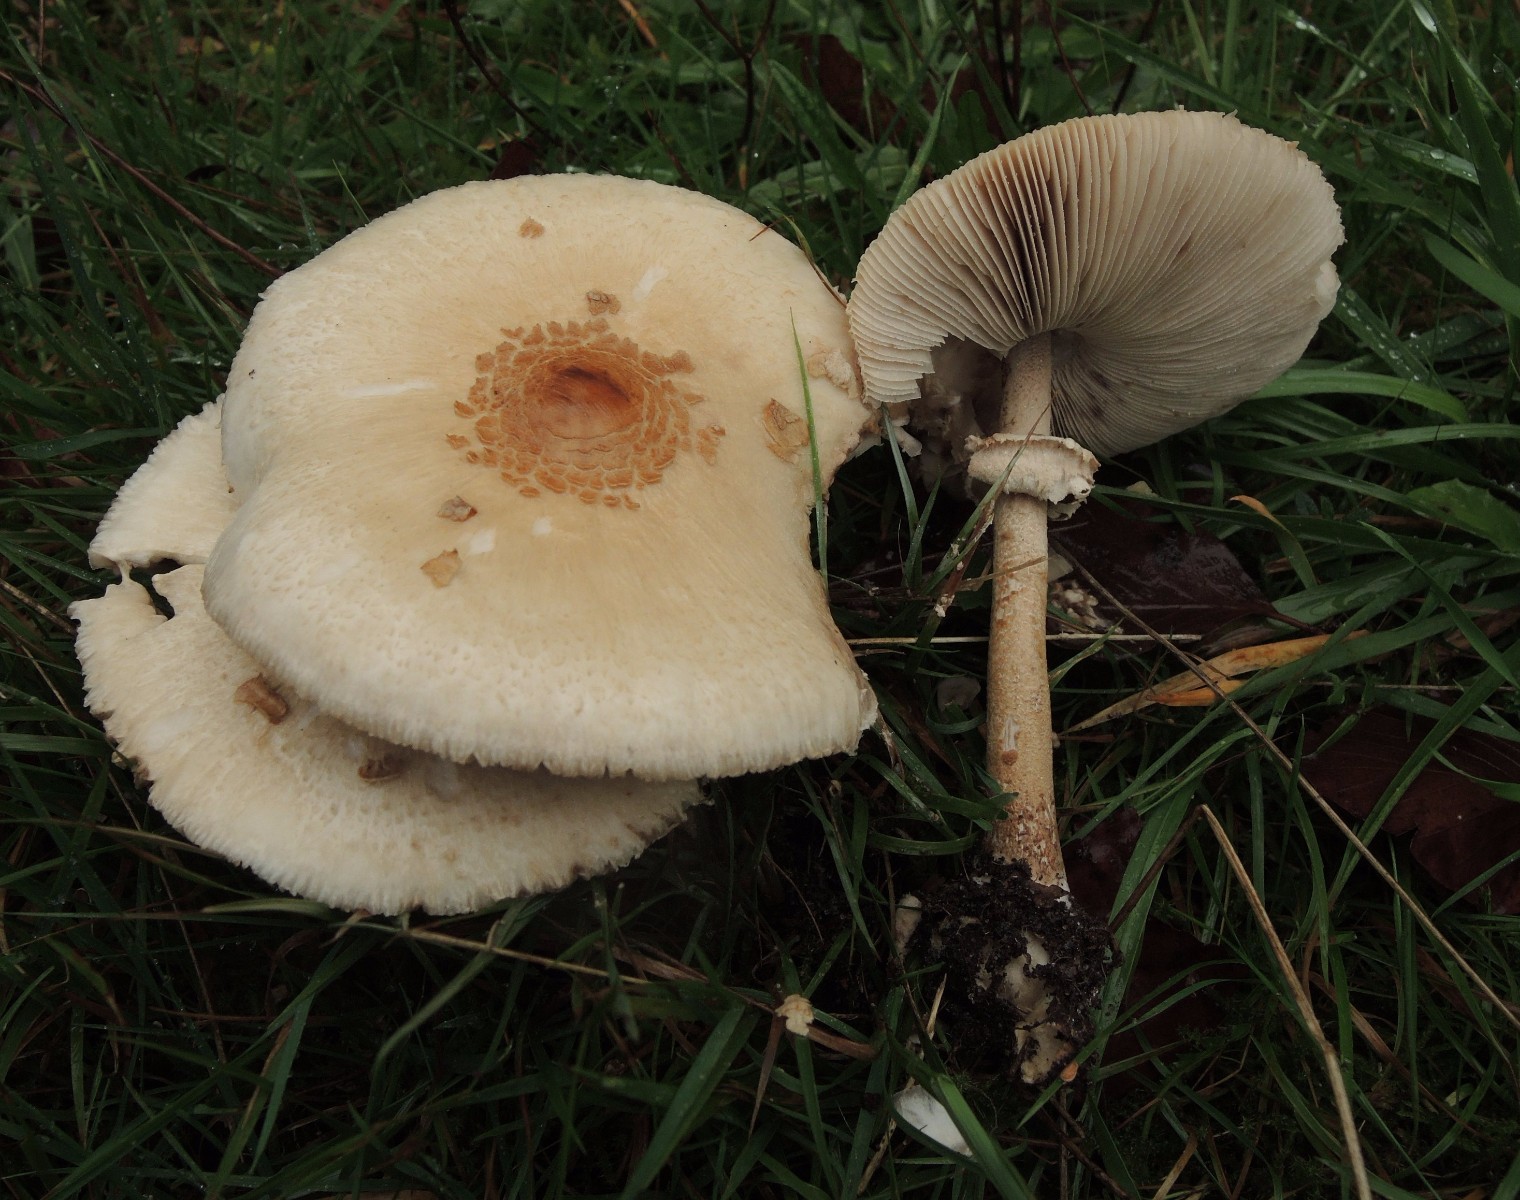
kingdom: Fungi
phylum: Basidiomycota
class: Agaricomycetes
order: Agaricales
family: Agaricaceae
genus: Macrolepiota
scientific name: Macrolepiota mastoidea
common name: puklet kæmpeparasolhat
